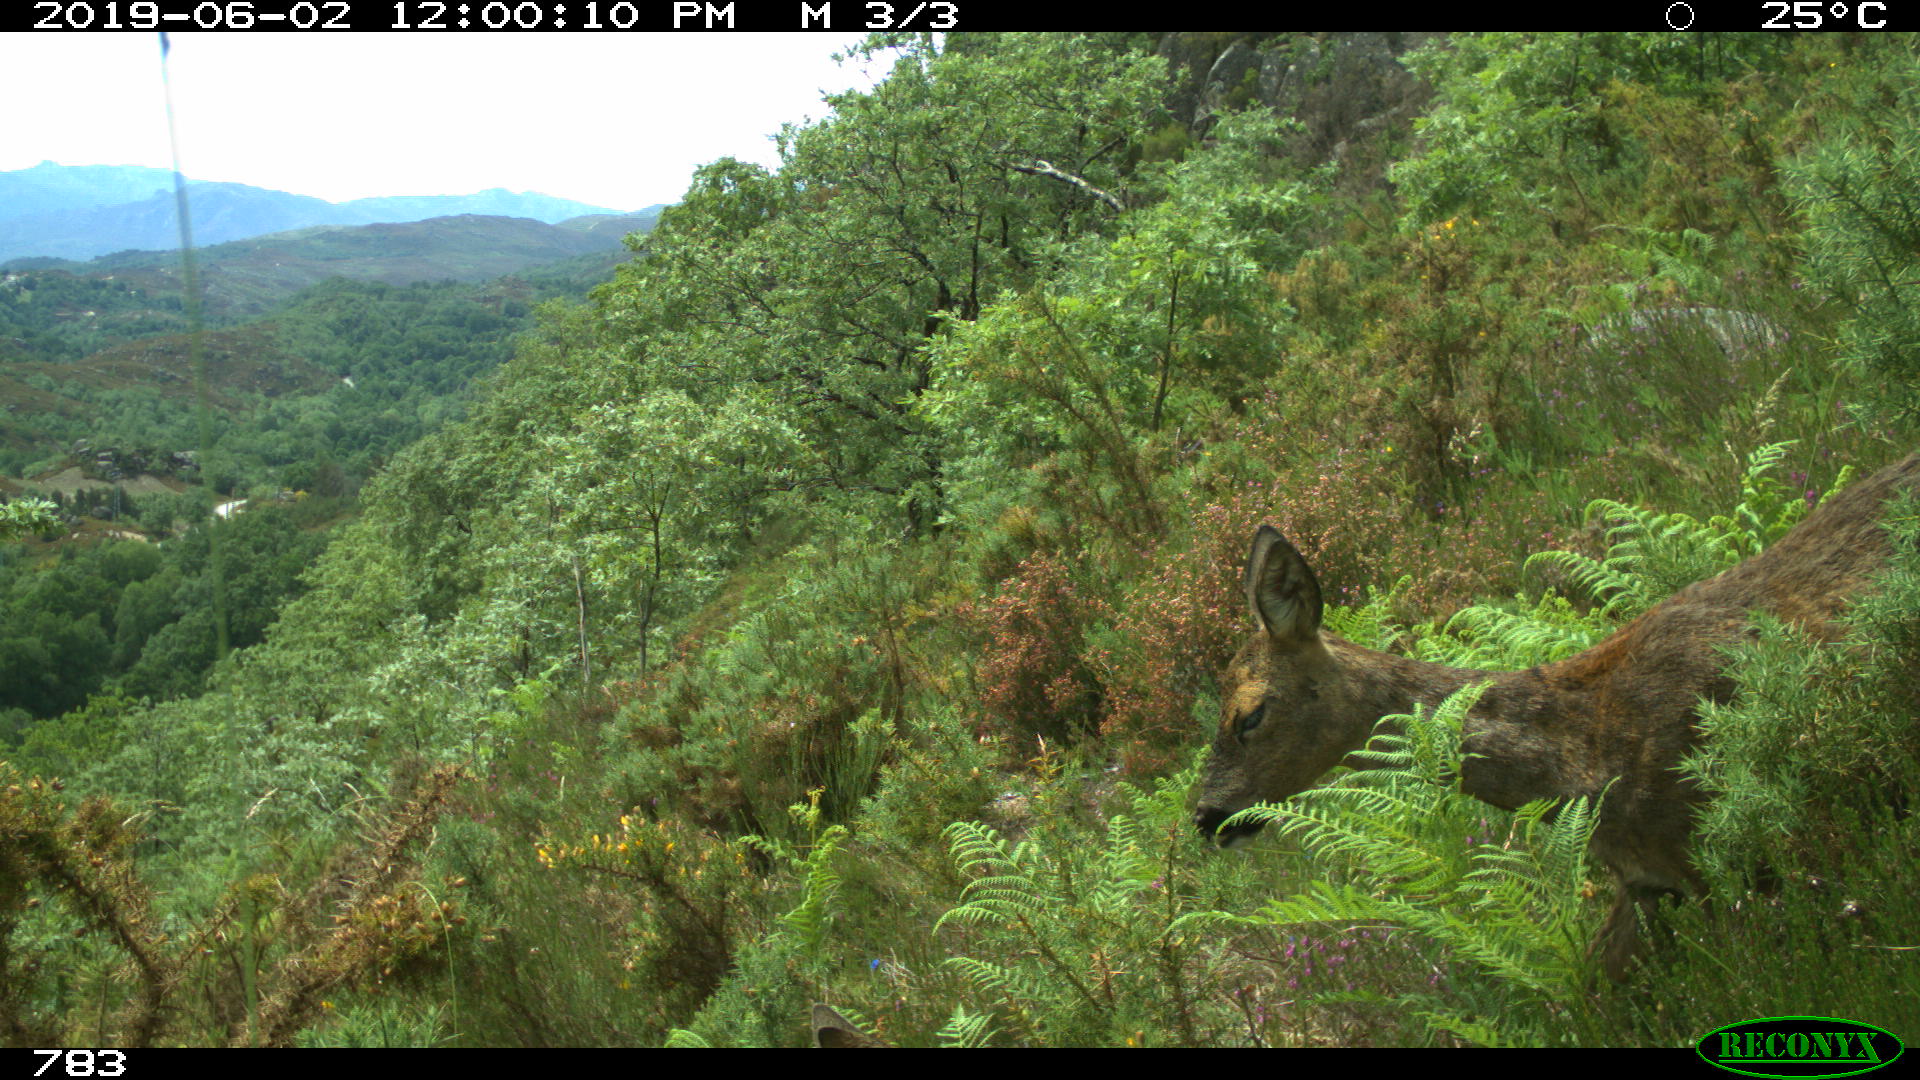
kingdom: Animalia
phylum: Chordata
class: Mammalia
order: Artiodactyla
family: Cervidae
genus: Capreolus
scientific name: Capreolus capreolus
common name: Western roe deer
